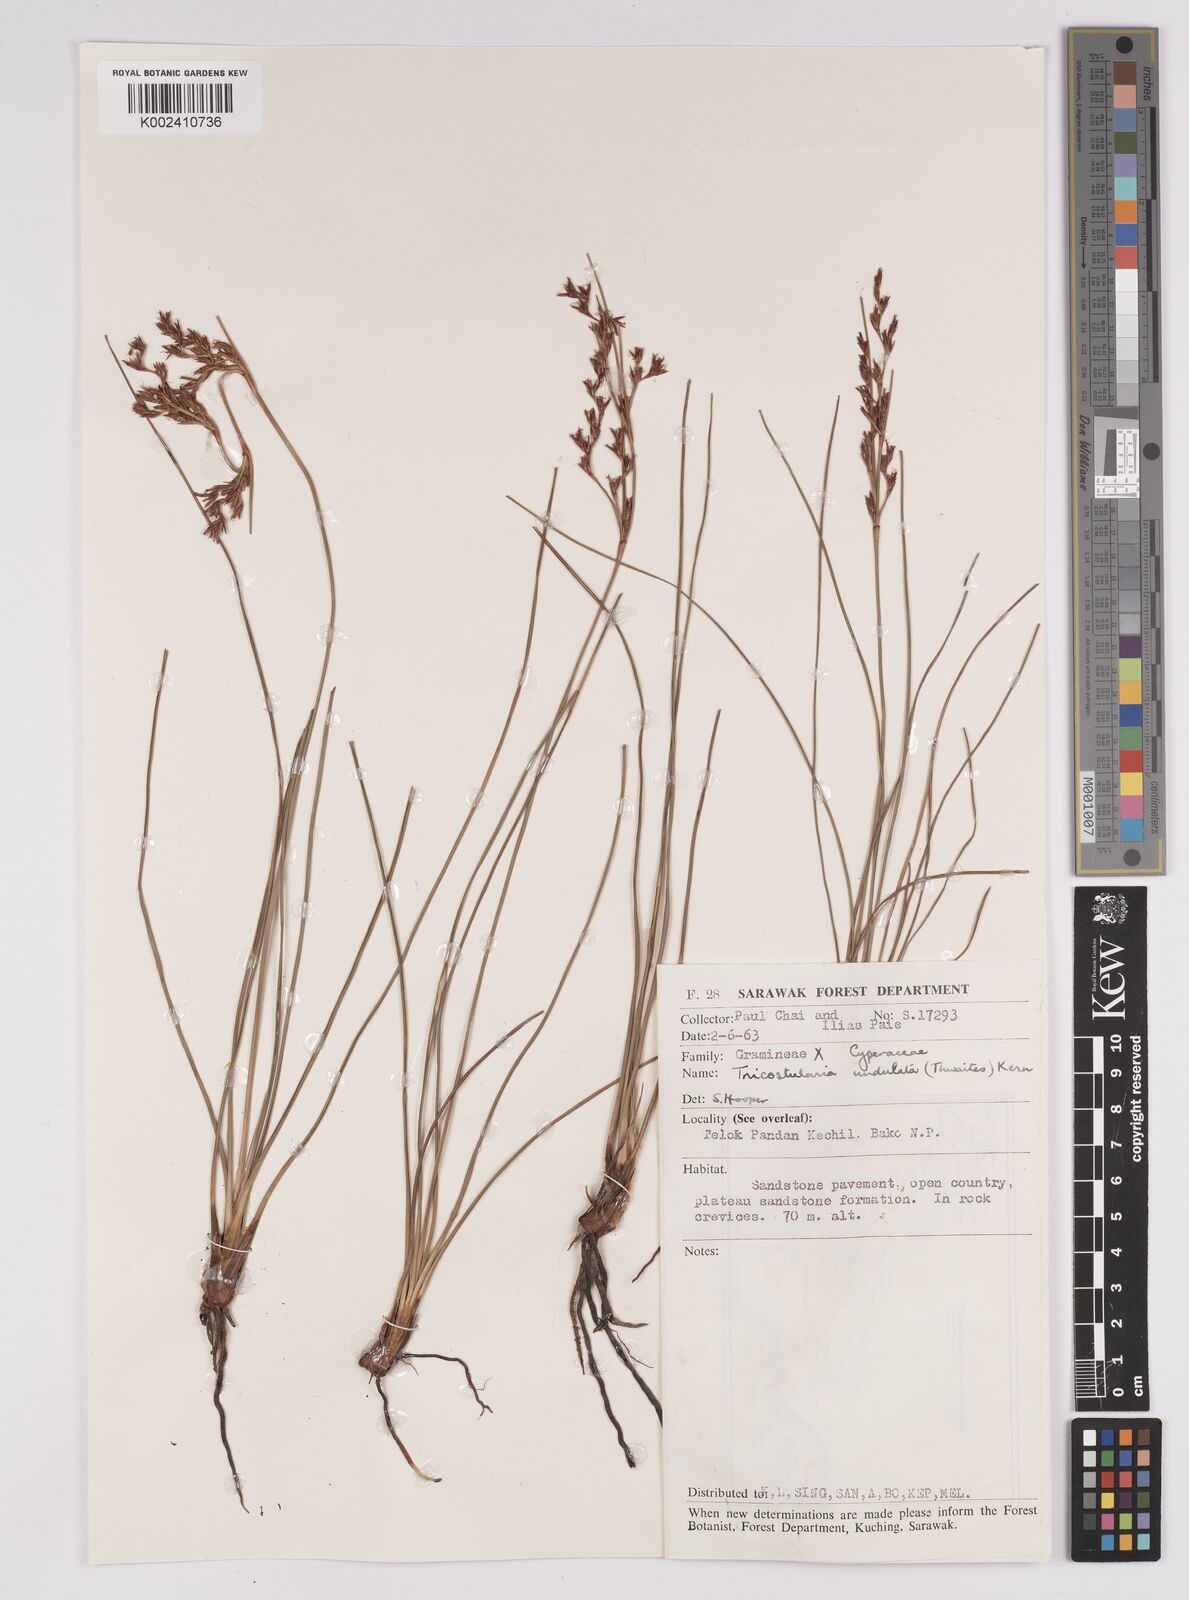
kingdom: Plantae
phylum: Tracheophyta
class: Liliopsida
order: Poales
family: Cyperaceae
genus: Anthelepis
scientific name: Anthelepis undulata
